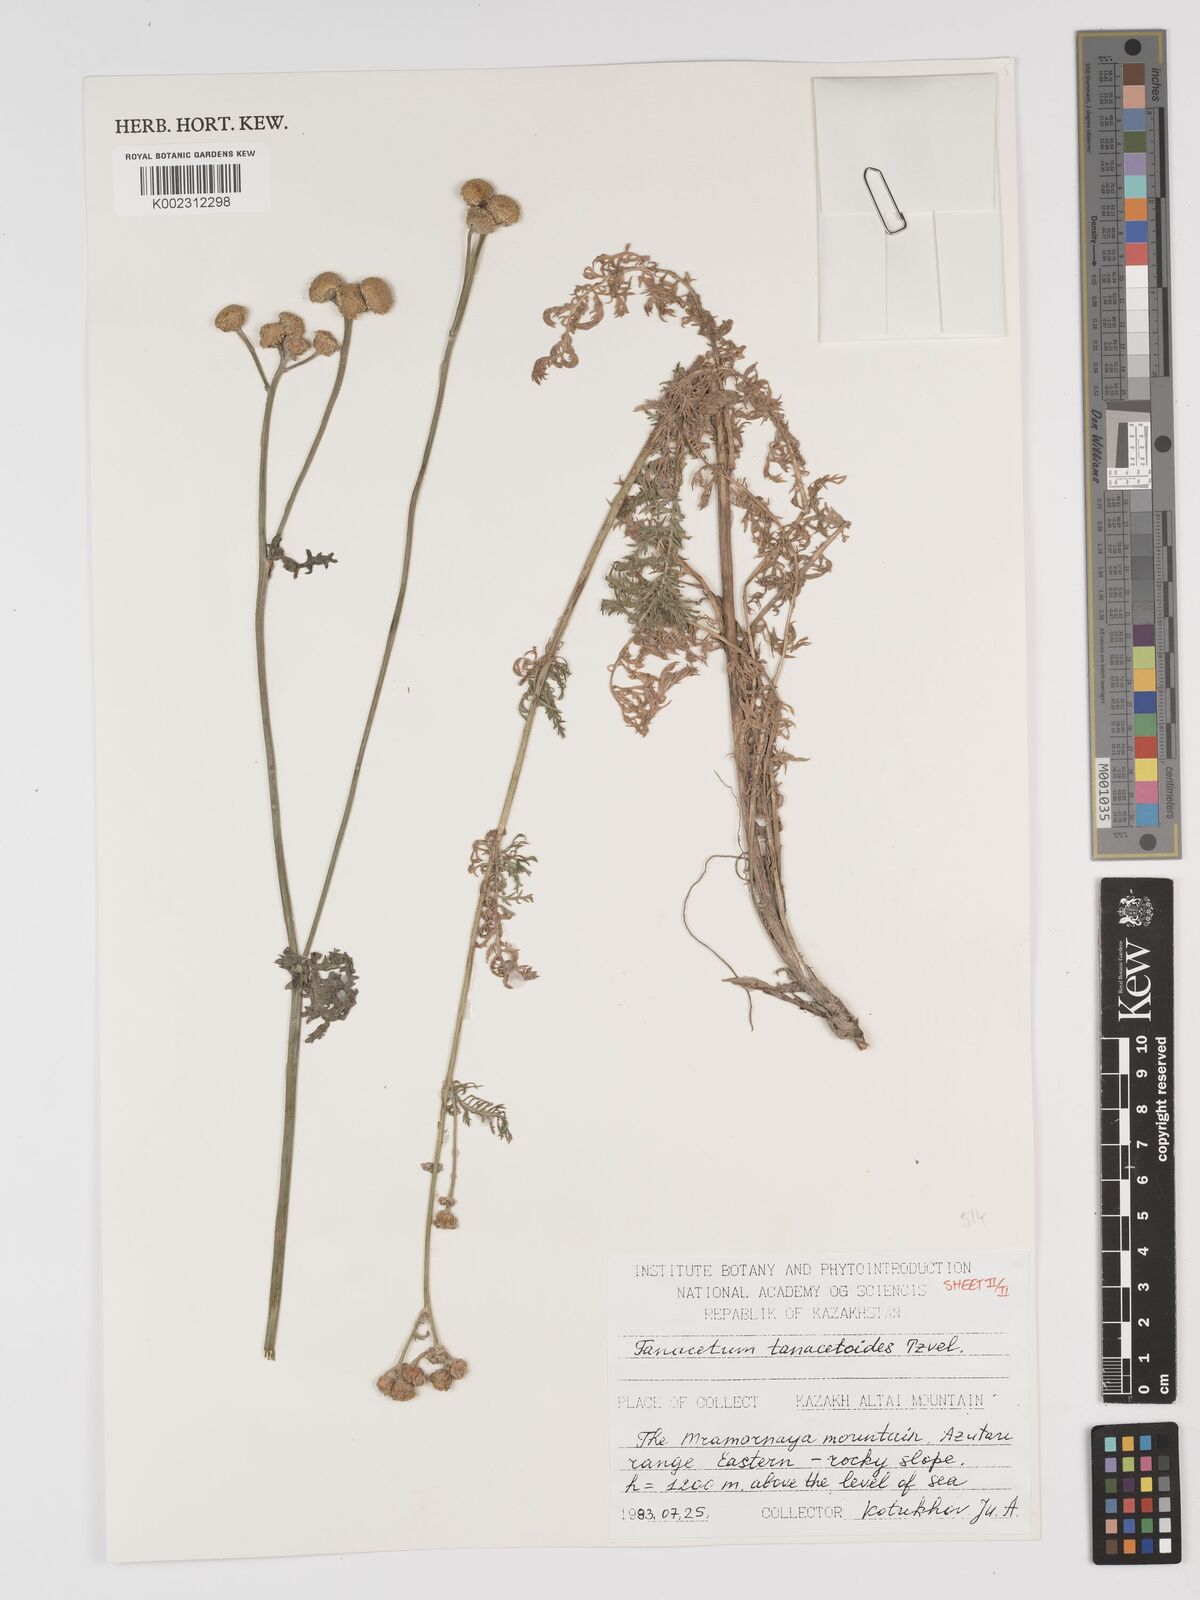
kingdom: Plantae
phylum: Tracheophyta
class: Magnoliopsida
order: Asterales
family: Asteraceae
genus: Tanacetum
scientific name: Tanacetum tanacetoides
